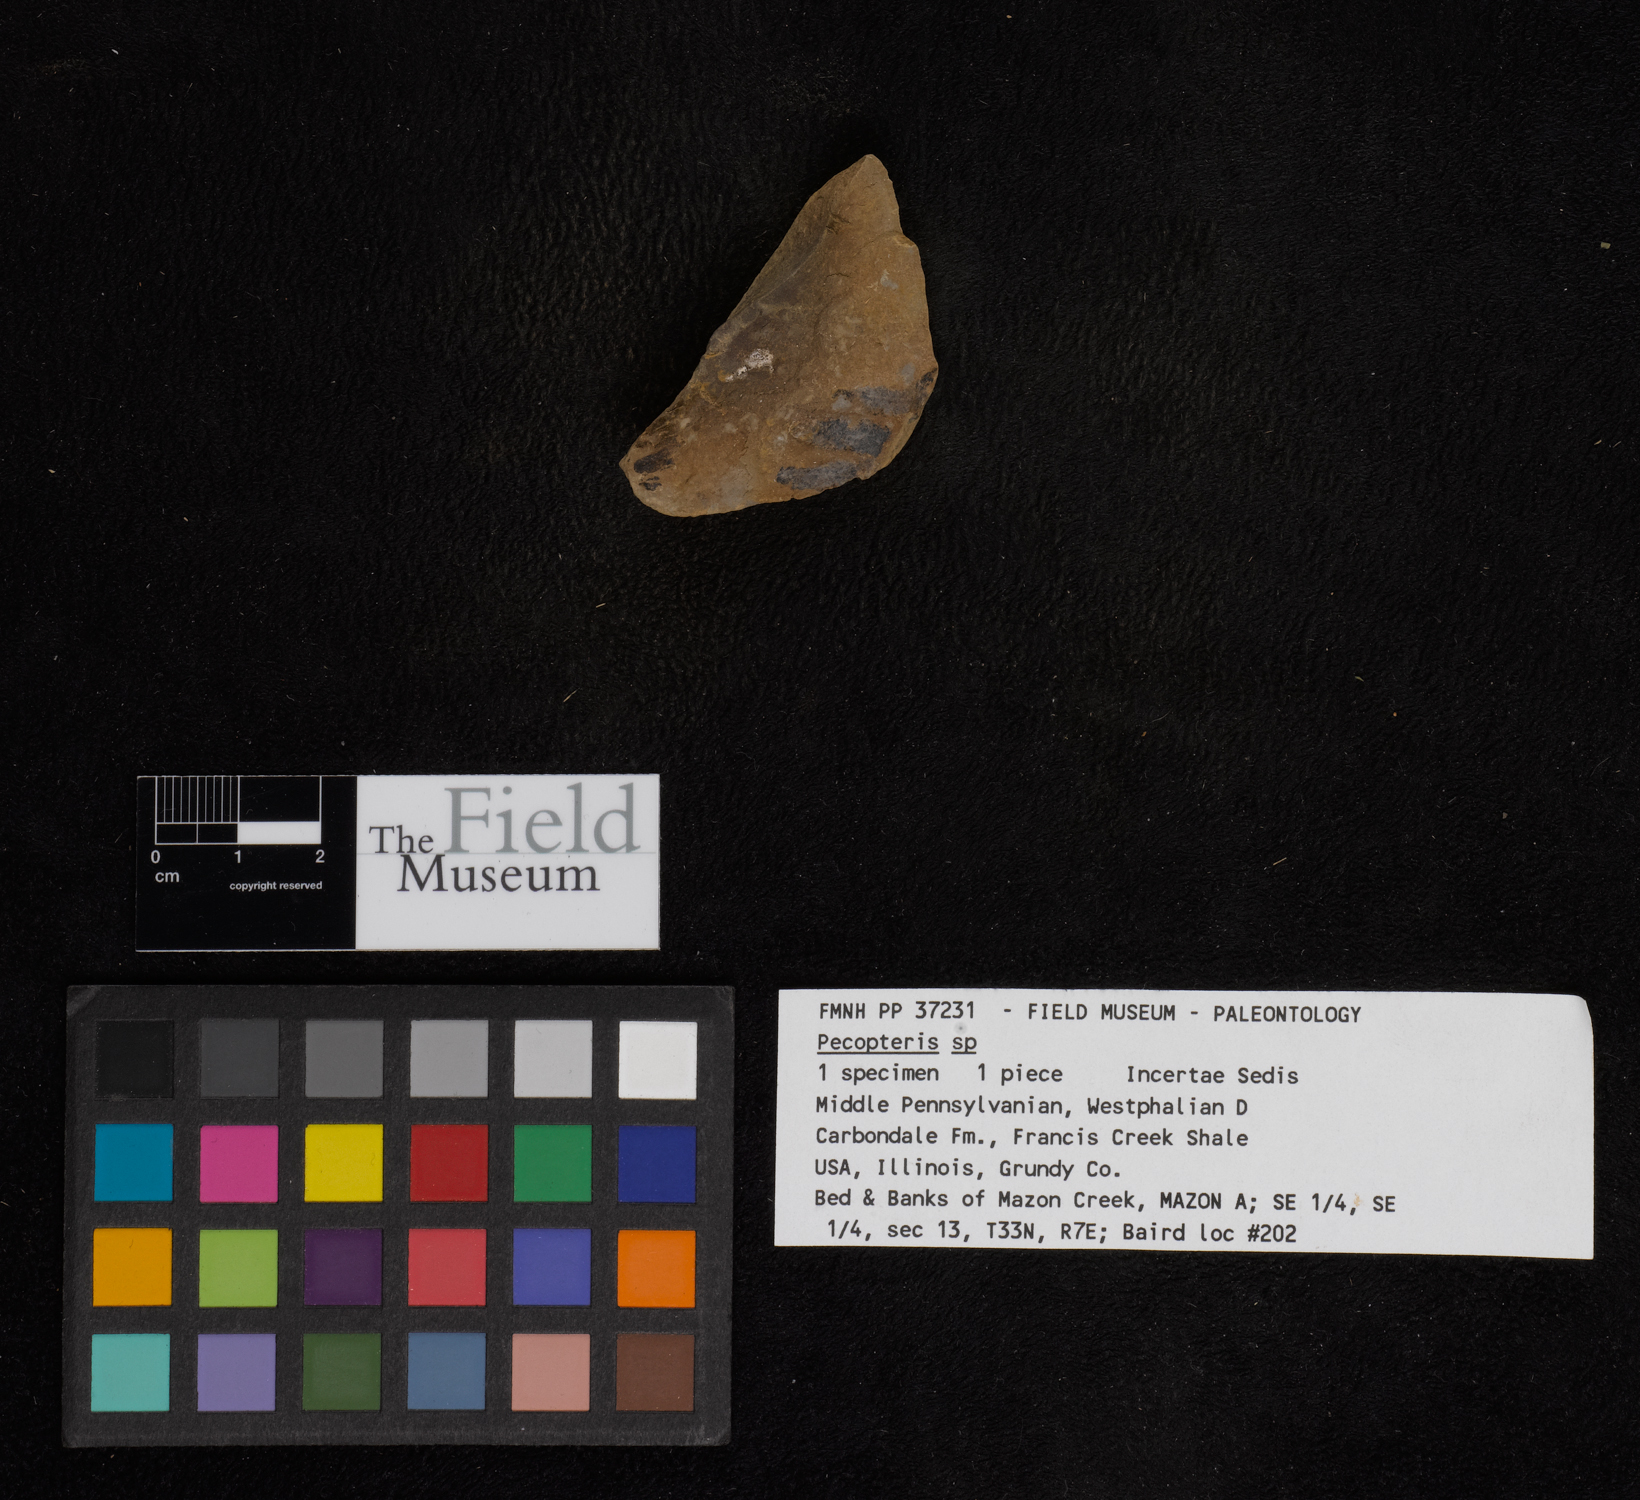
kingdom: Plantae
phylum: Tracheophyta
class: Polypodiopsida
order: Marattiales
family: Asterothecaceae
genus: Pecopteris
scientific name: Pecopteris
